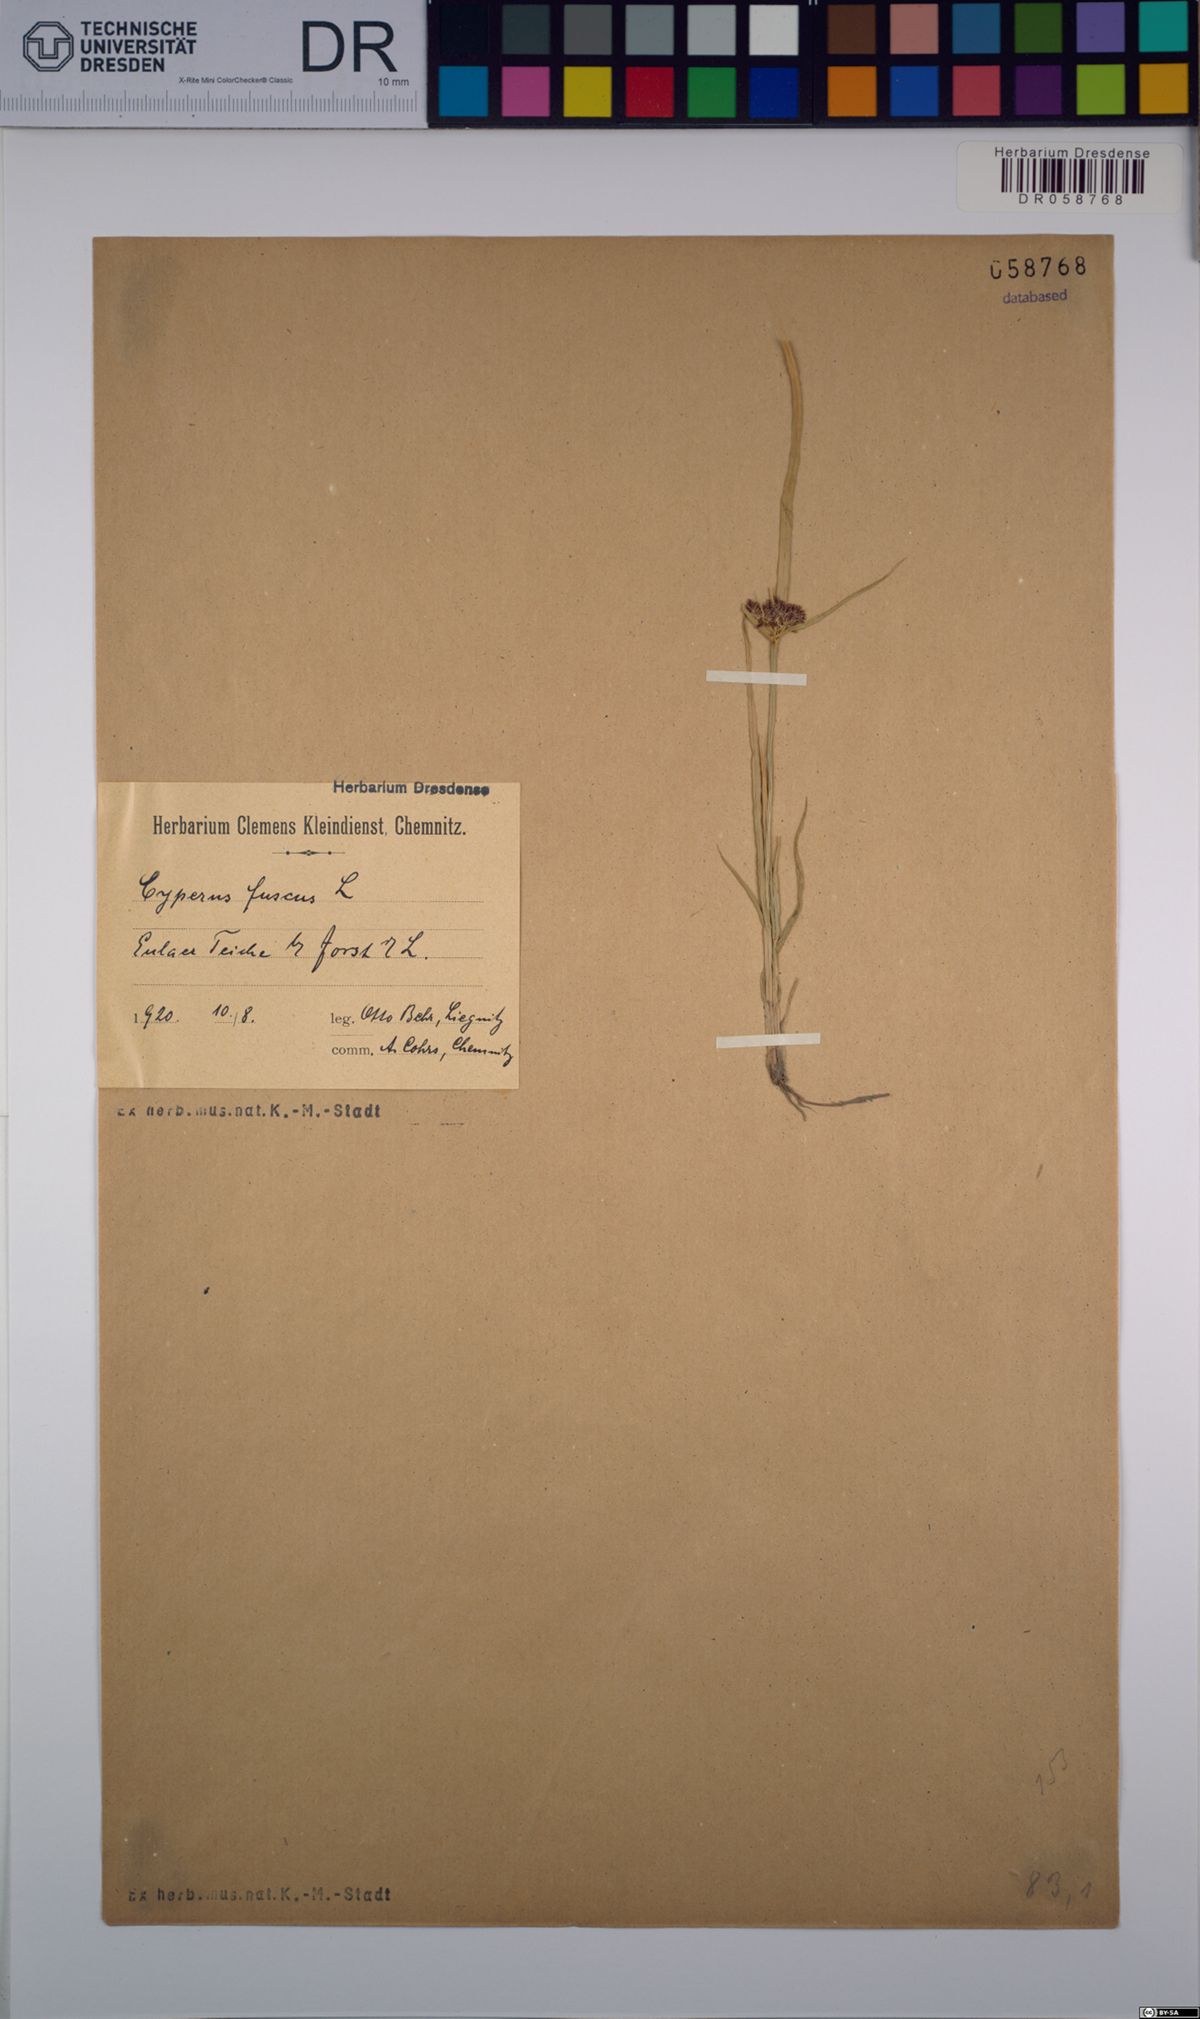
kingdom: Plantae
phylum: Tracheophyta
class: Liliopsida
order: Poales
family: Cyperaceae
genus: Cyperus
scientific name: Cyperus fuscus
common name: Brown galingale
